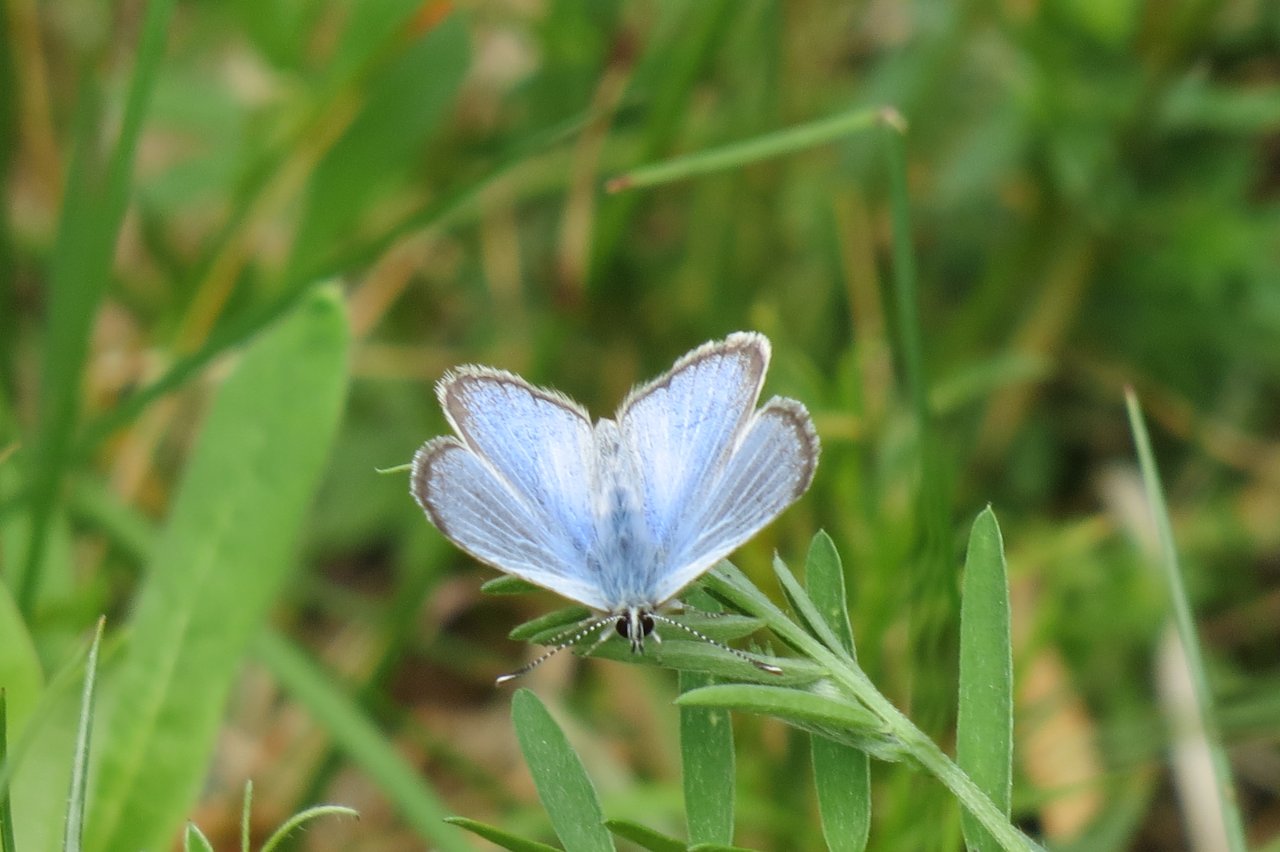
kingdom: Animalia
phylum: Arthropoda
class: Insecta
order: Lepidoptera
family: Lycaenidae
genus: Glaucopsyche
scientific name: Glaucopsyche lygdamus
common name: Silvery Blue
